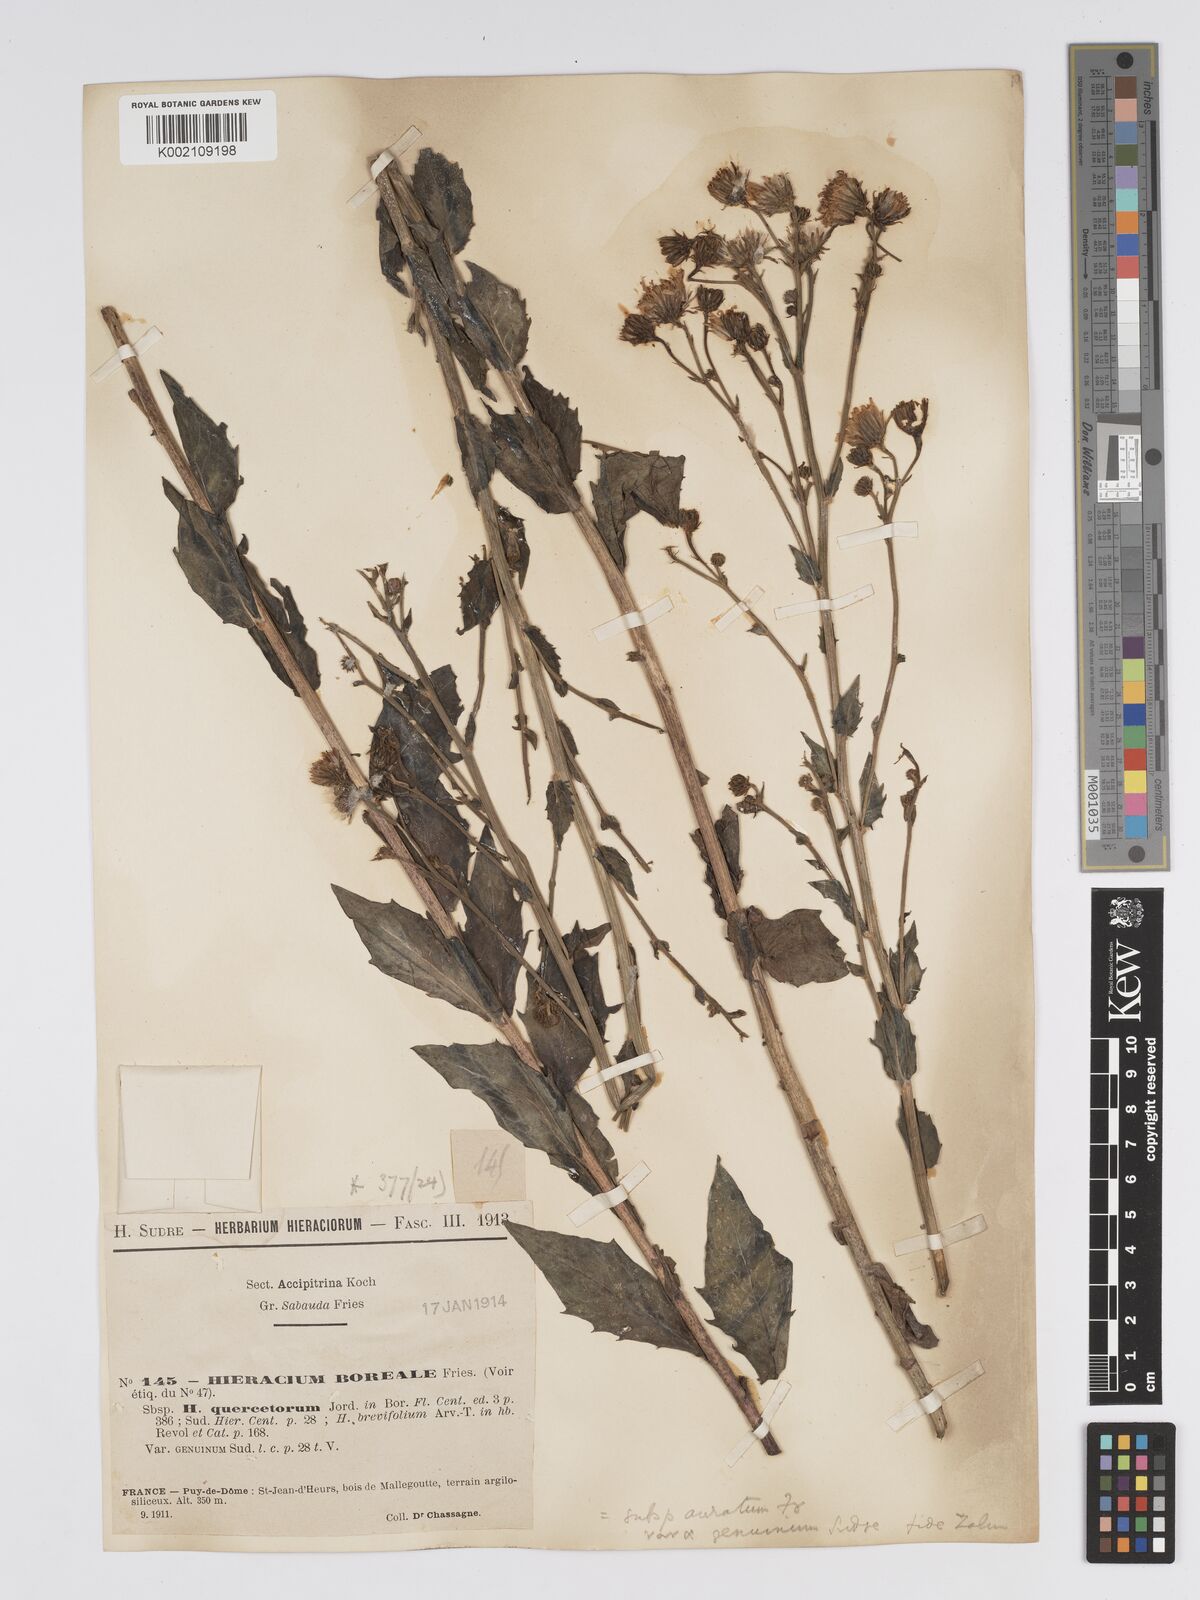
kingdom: Plantae
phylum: Tracheophyta
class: Magnoliopsida
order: Asterales
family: Asteraceae
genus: Hieracium
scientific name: Hieracium sabaudum
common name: New england hawkweed
